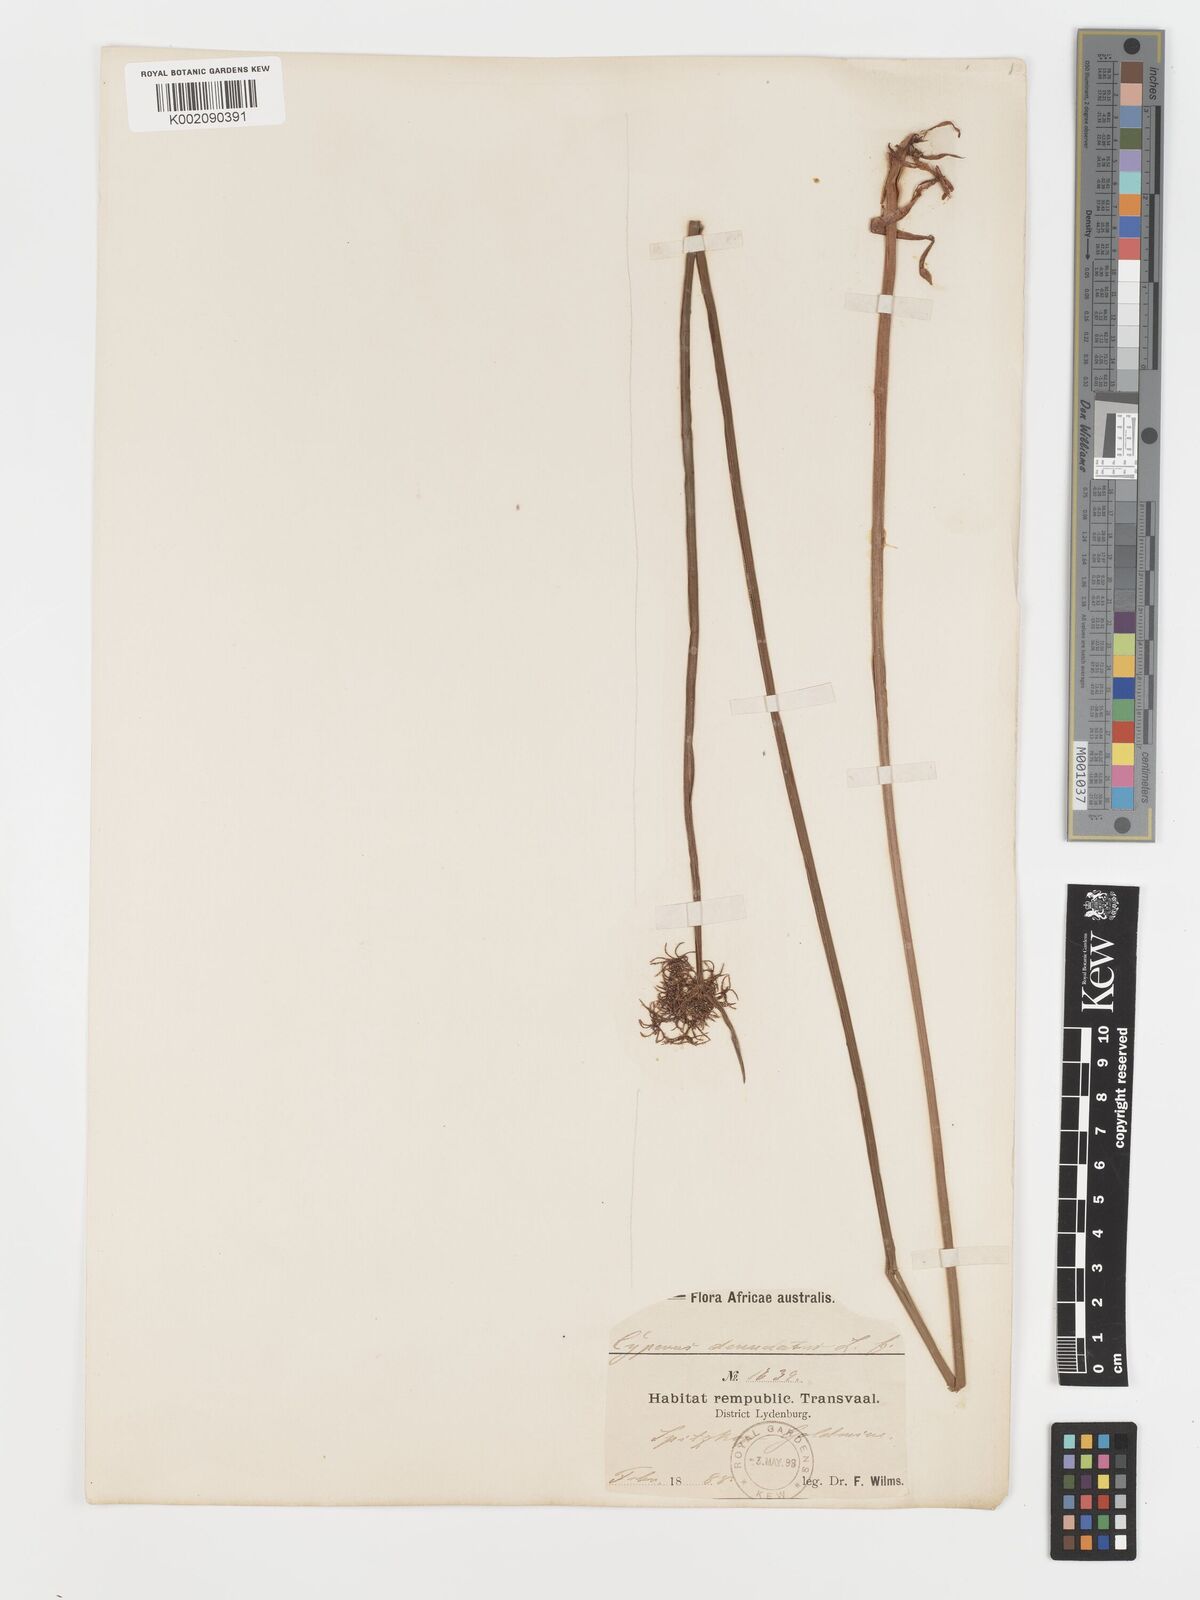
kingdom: Plantae
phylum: Tracheophyta
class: Liliopsida
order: Poales
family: Cyperaceae
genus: Cyperus
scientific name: Cyperus platycaulis
